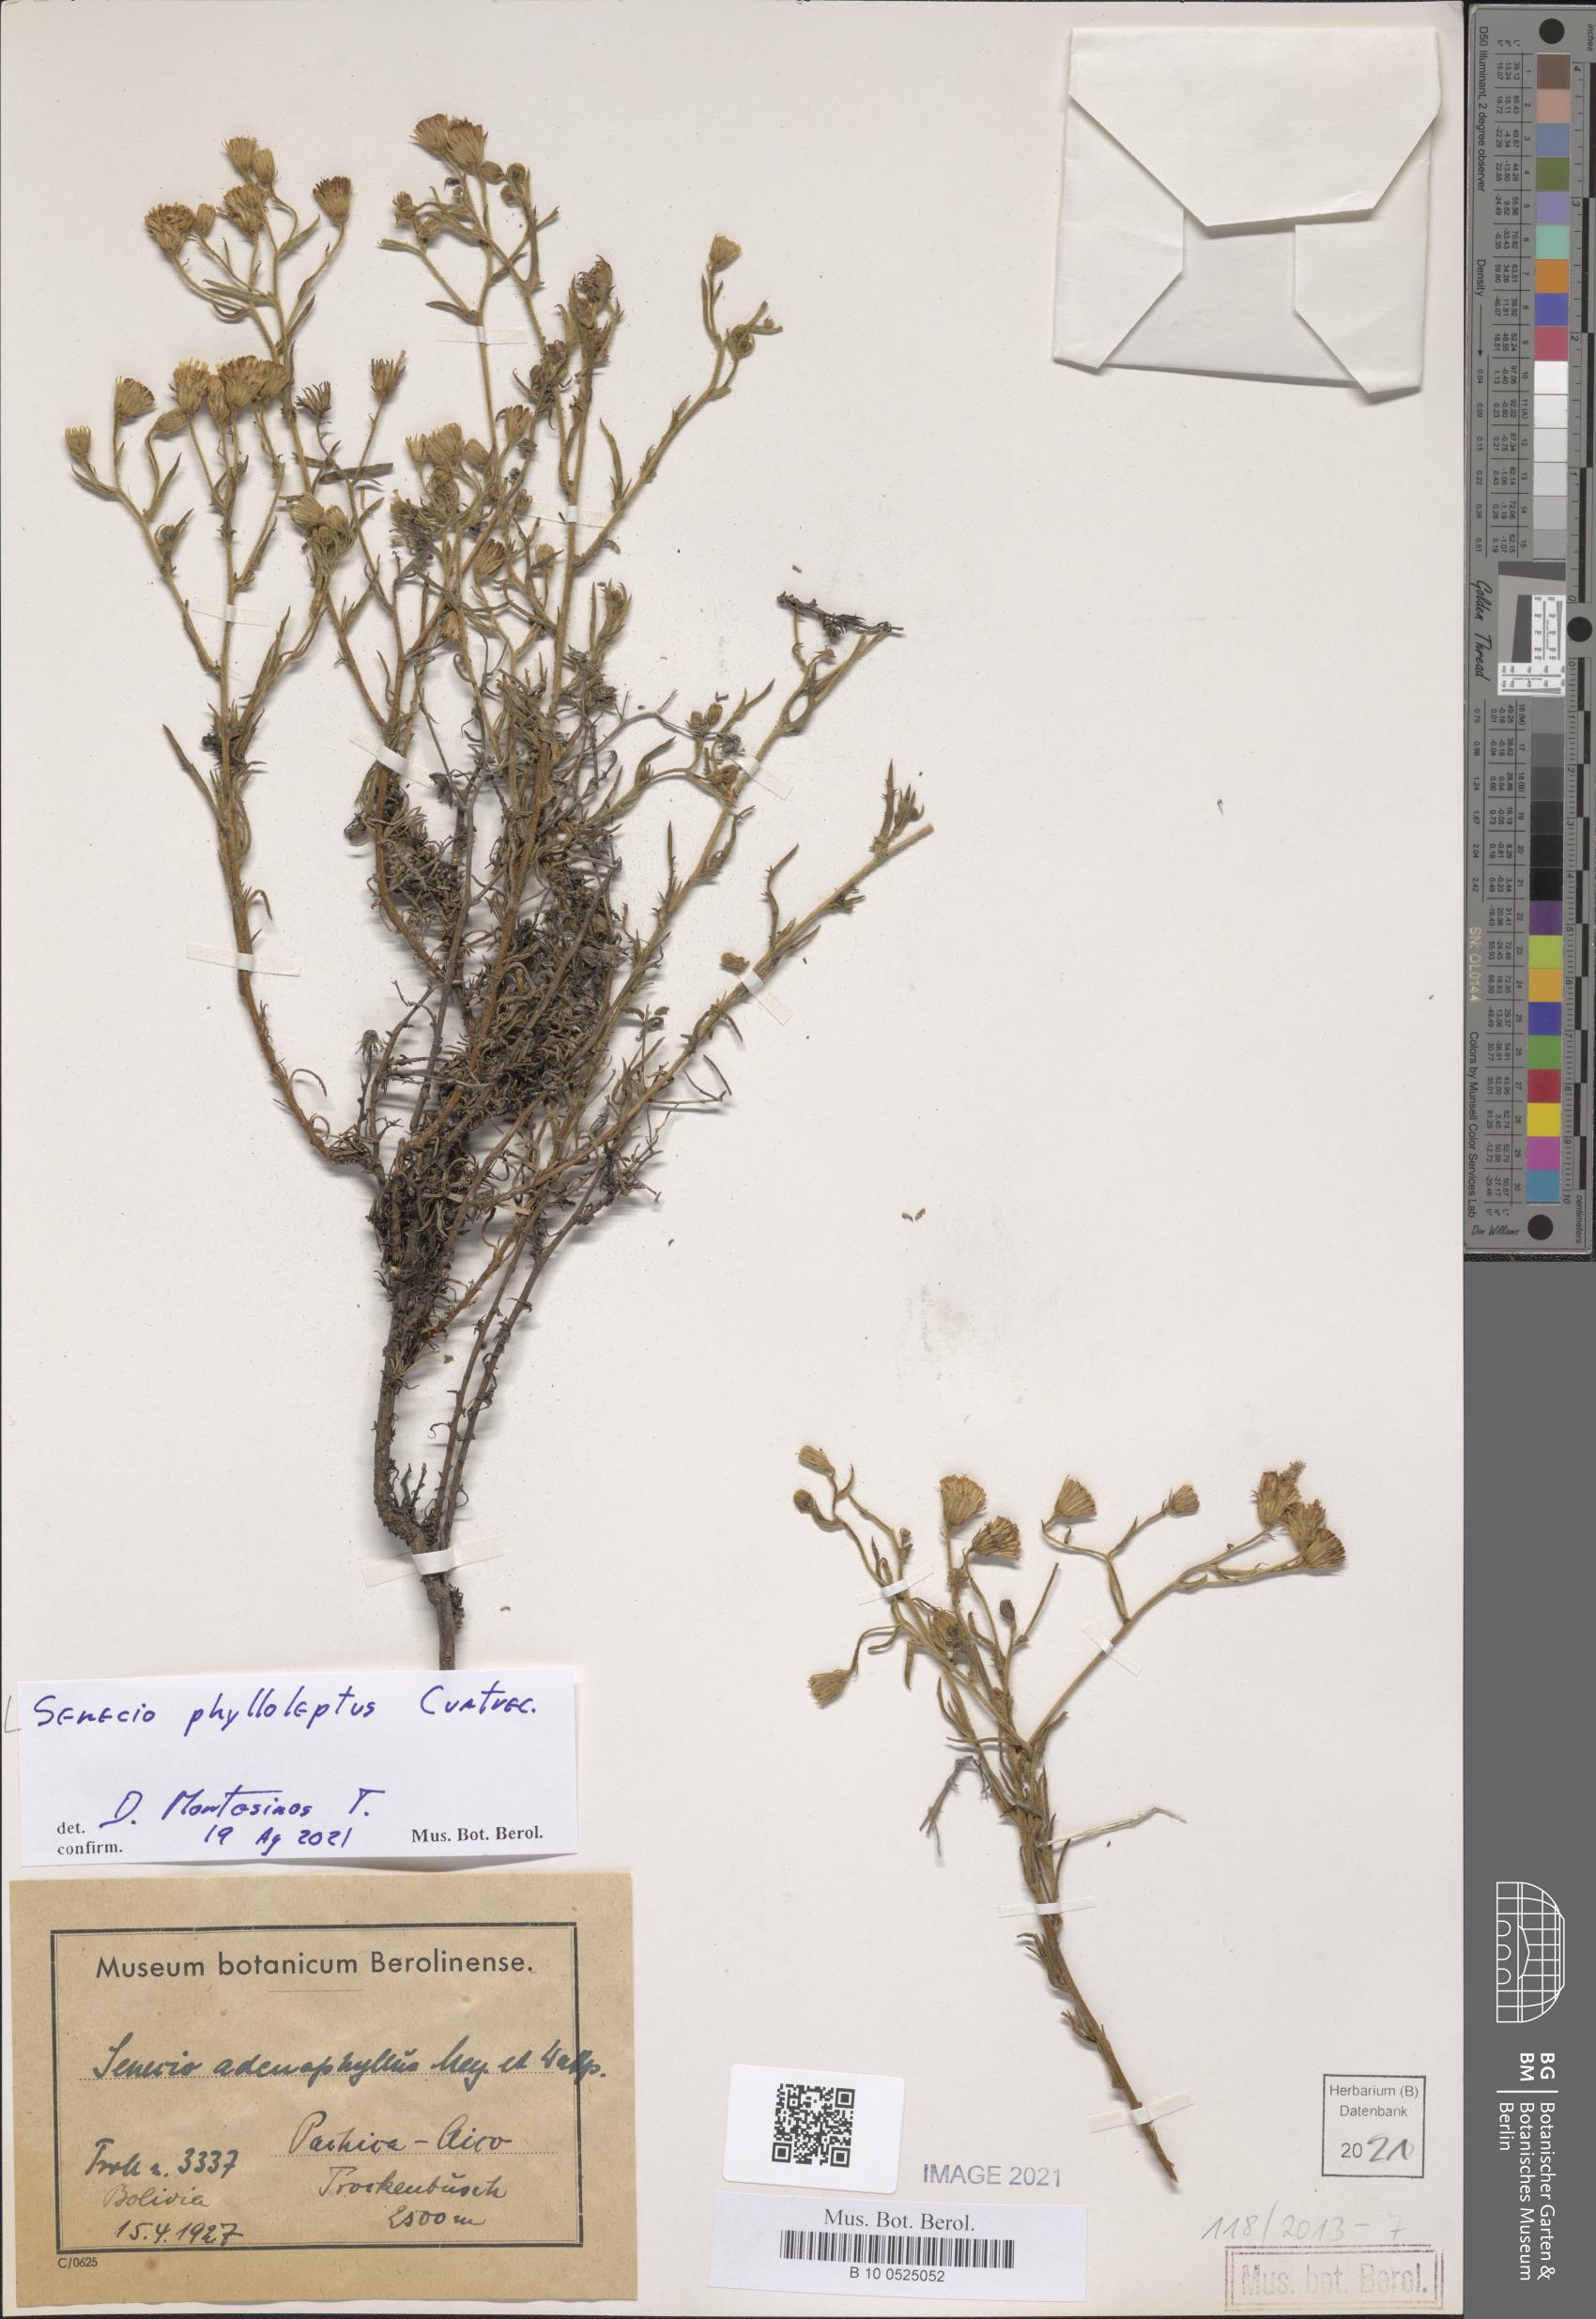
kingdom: Plantae
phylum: Tracheophyta
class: Magnoliopsida
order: Asterales
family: Asteraceae
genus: Senecio
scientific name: Senecio adenophyllus
